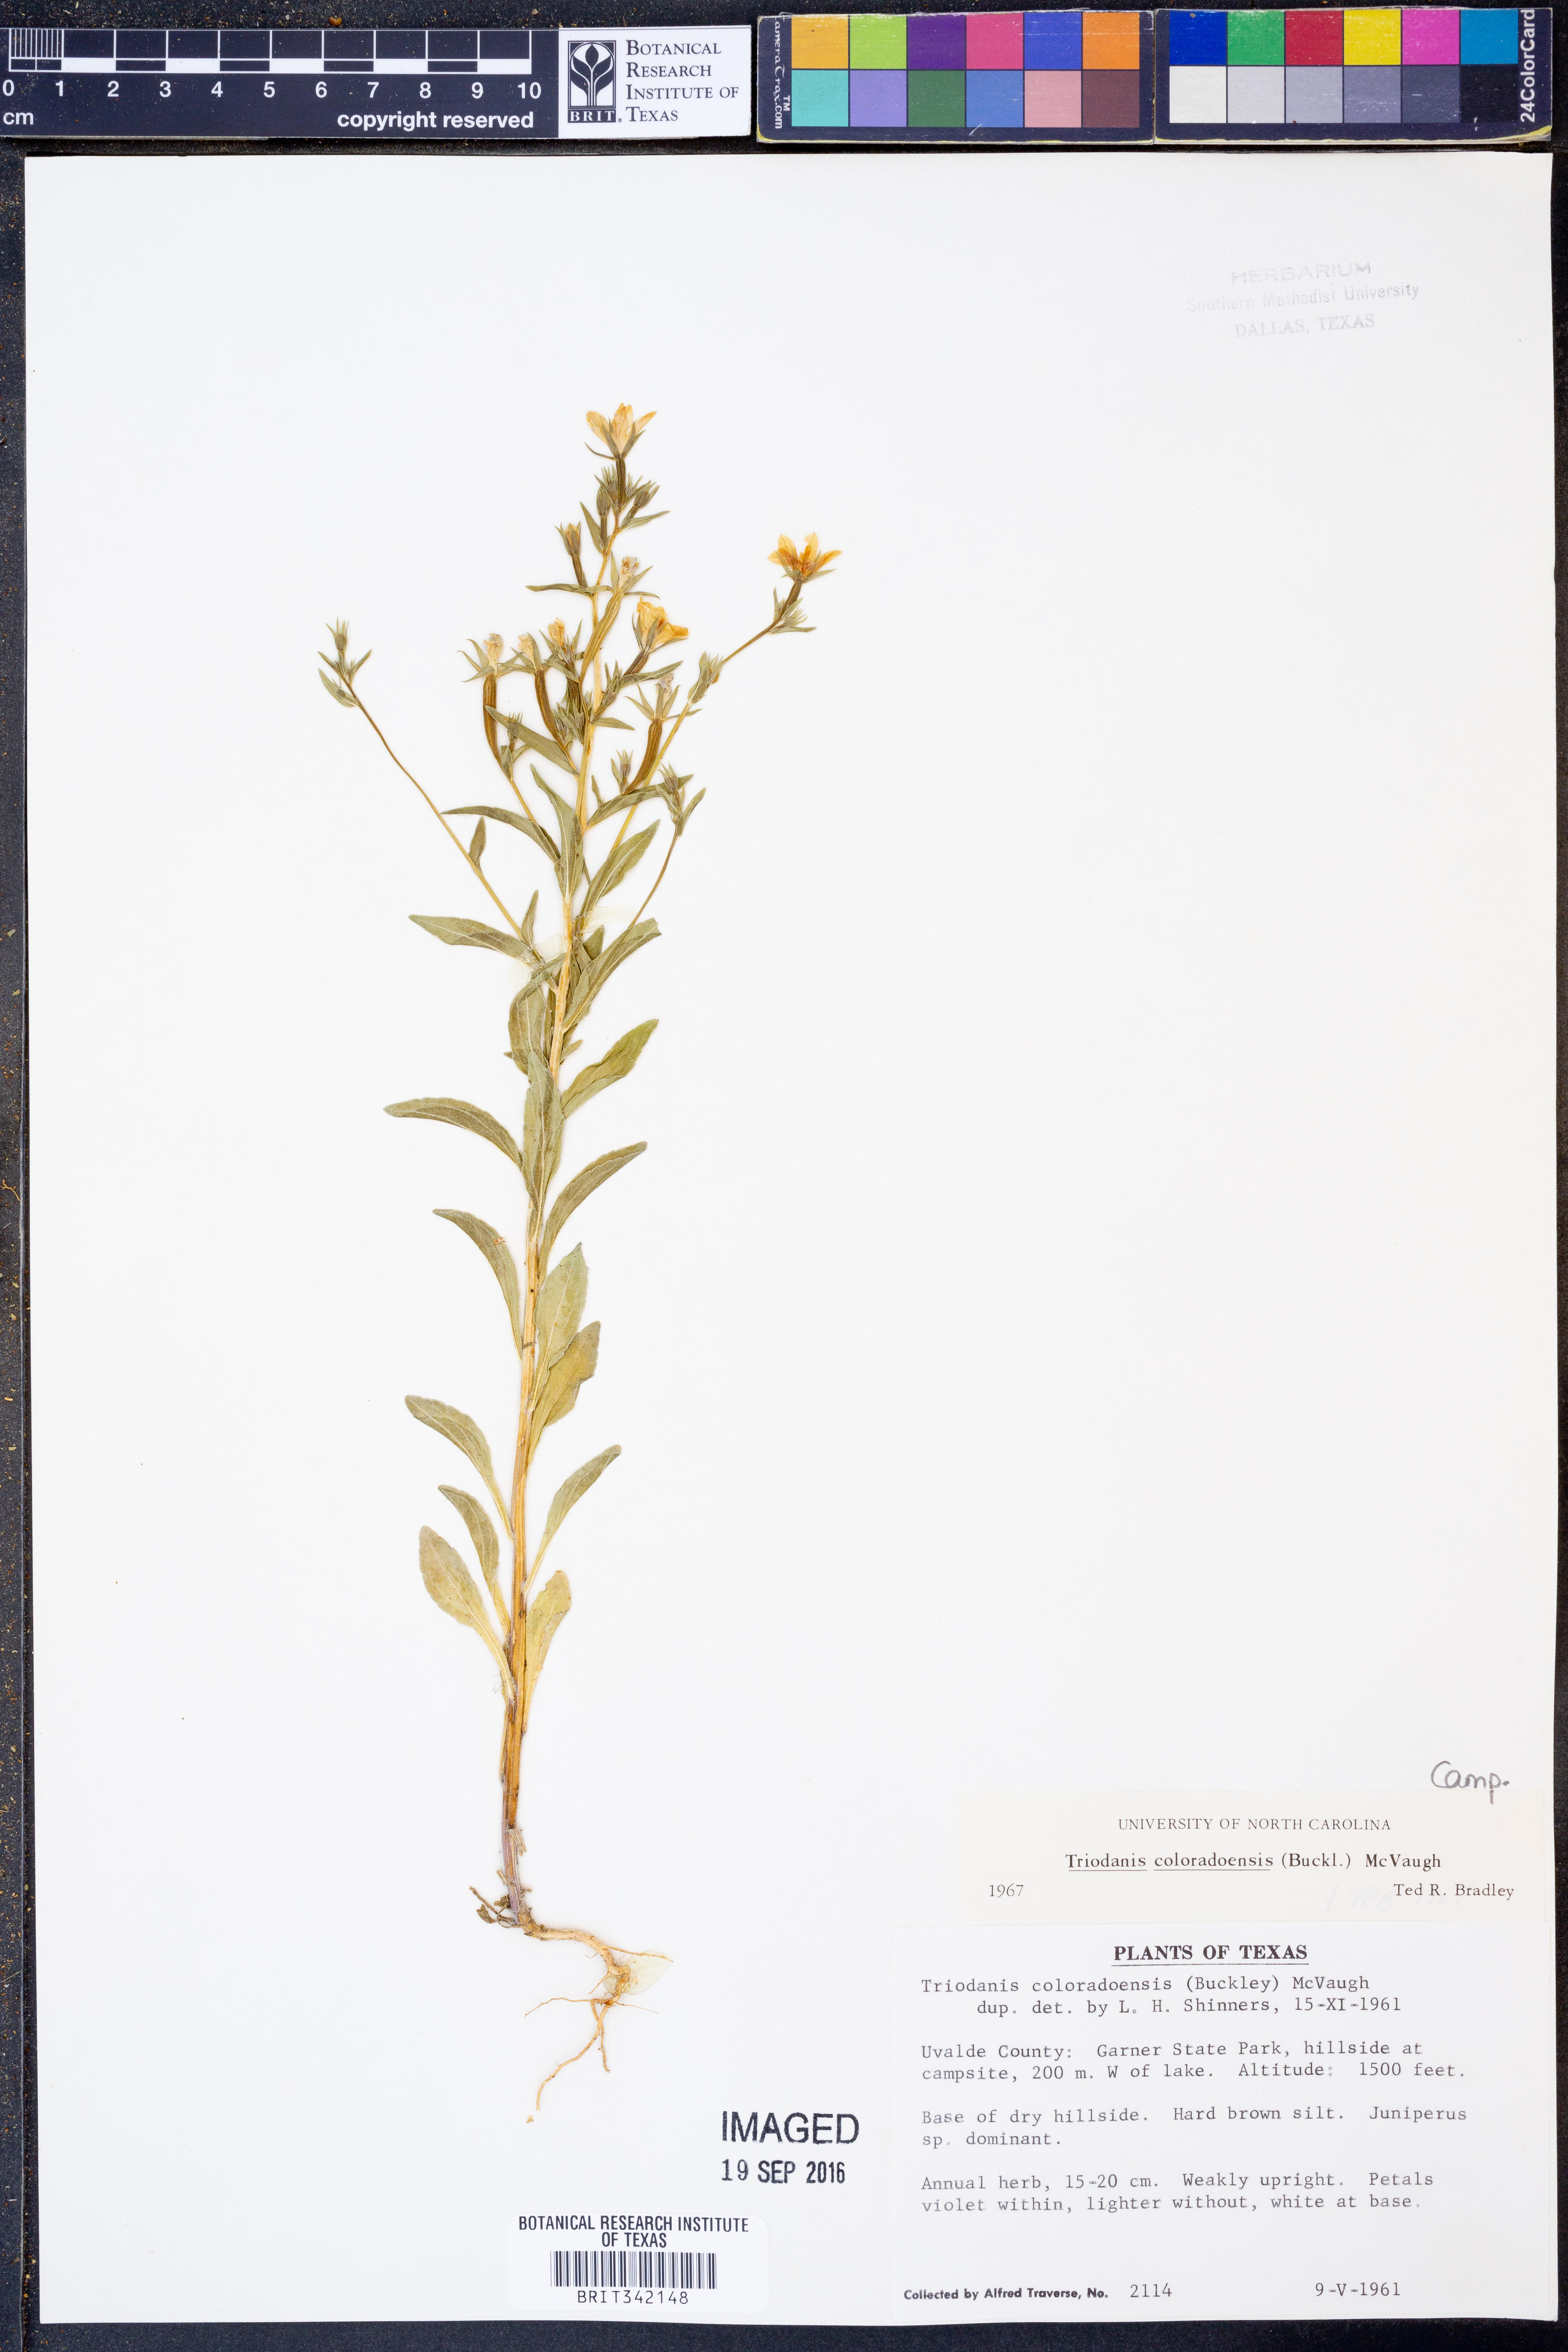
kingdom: Plantae
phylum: Tracheophyta
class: Magnoliopsida
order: Asterales
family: Campanulaceae
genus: Triodanis
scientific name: Triodanis coloradoensis
